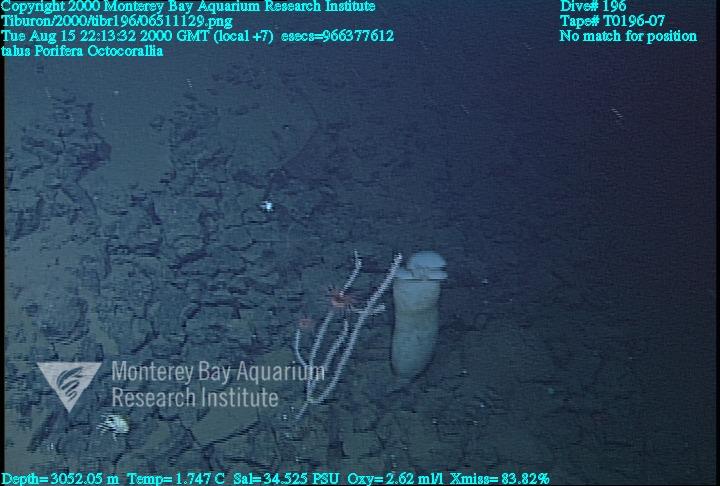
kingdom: Animalia
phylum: Porifera
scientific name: Porifera
